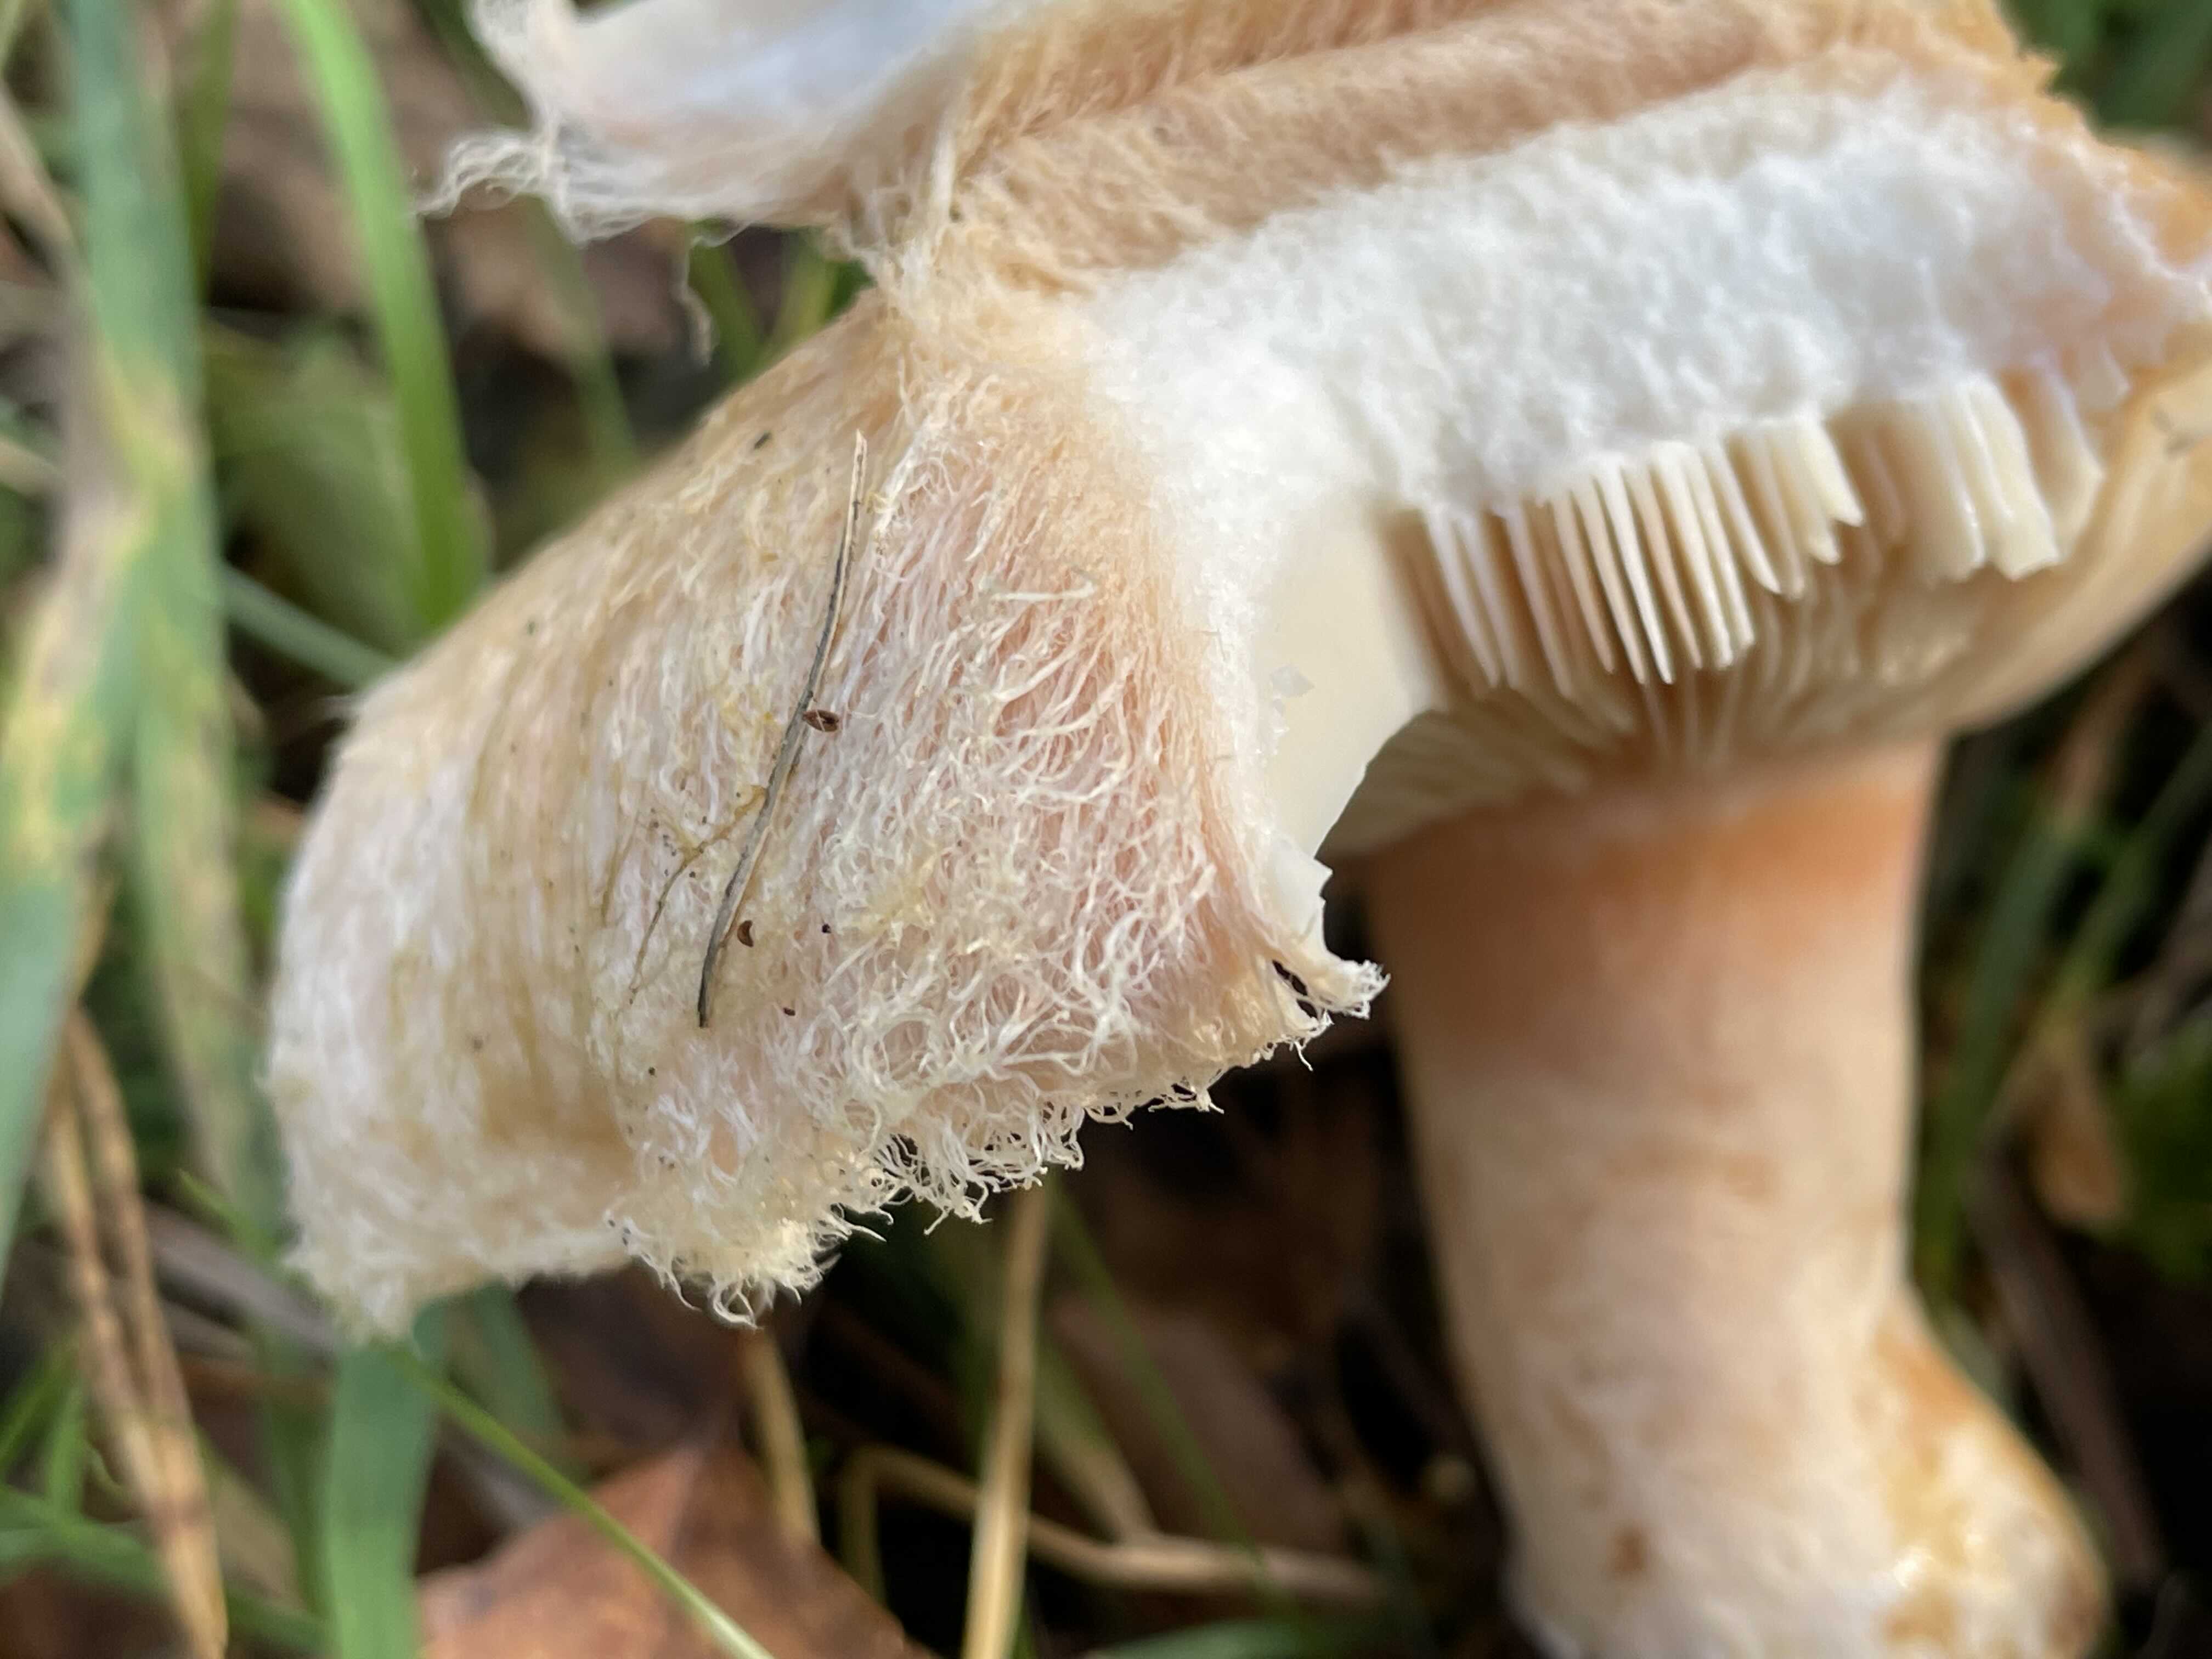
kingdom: Fungi
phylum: Basidiomycota
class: Agaricomycetes
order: Russulales
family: Russulaceae
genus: Lactarius
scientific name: Lactarius torminosus
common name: skægget mælkehat
